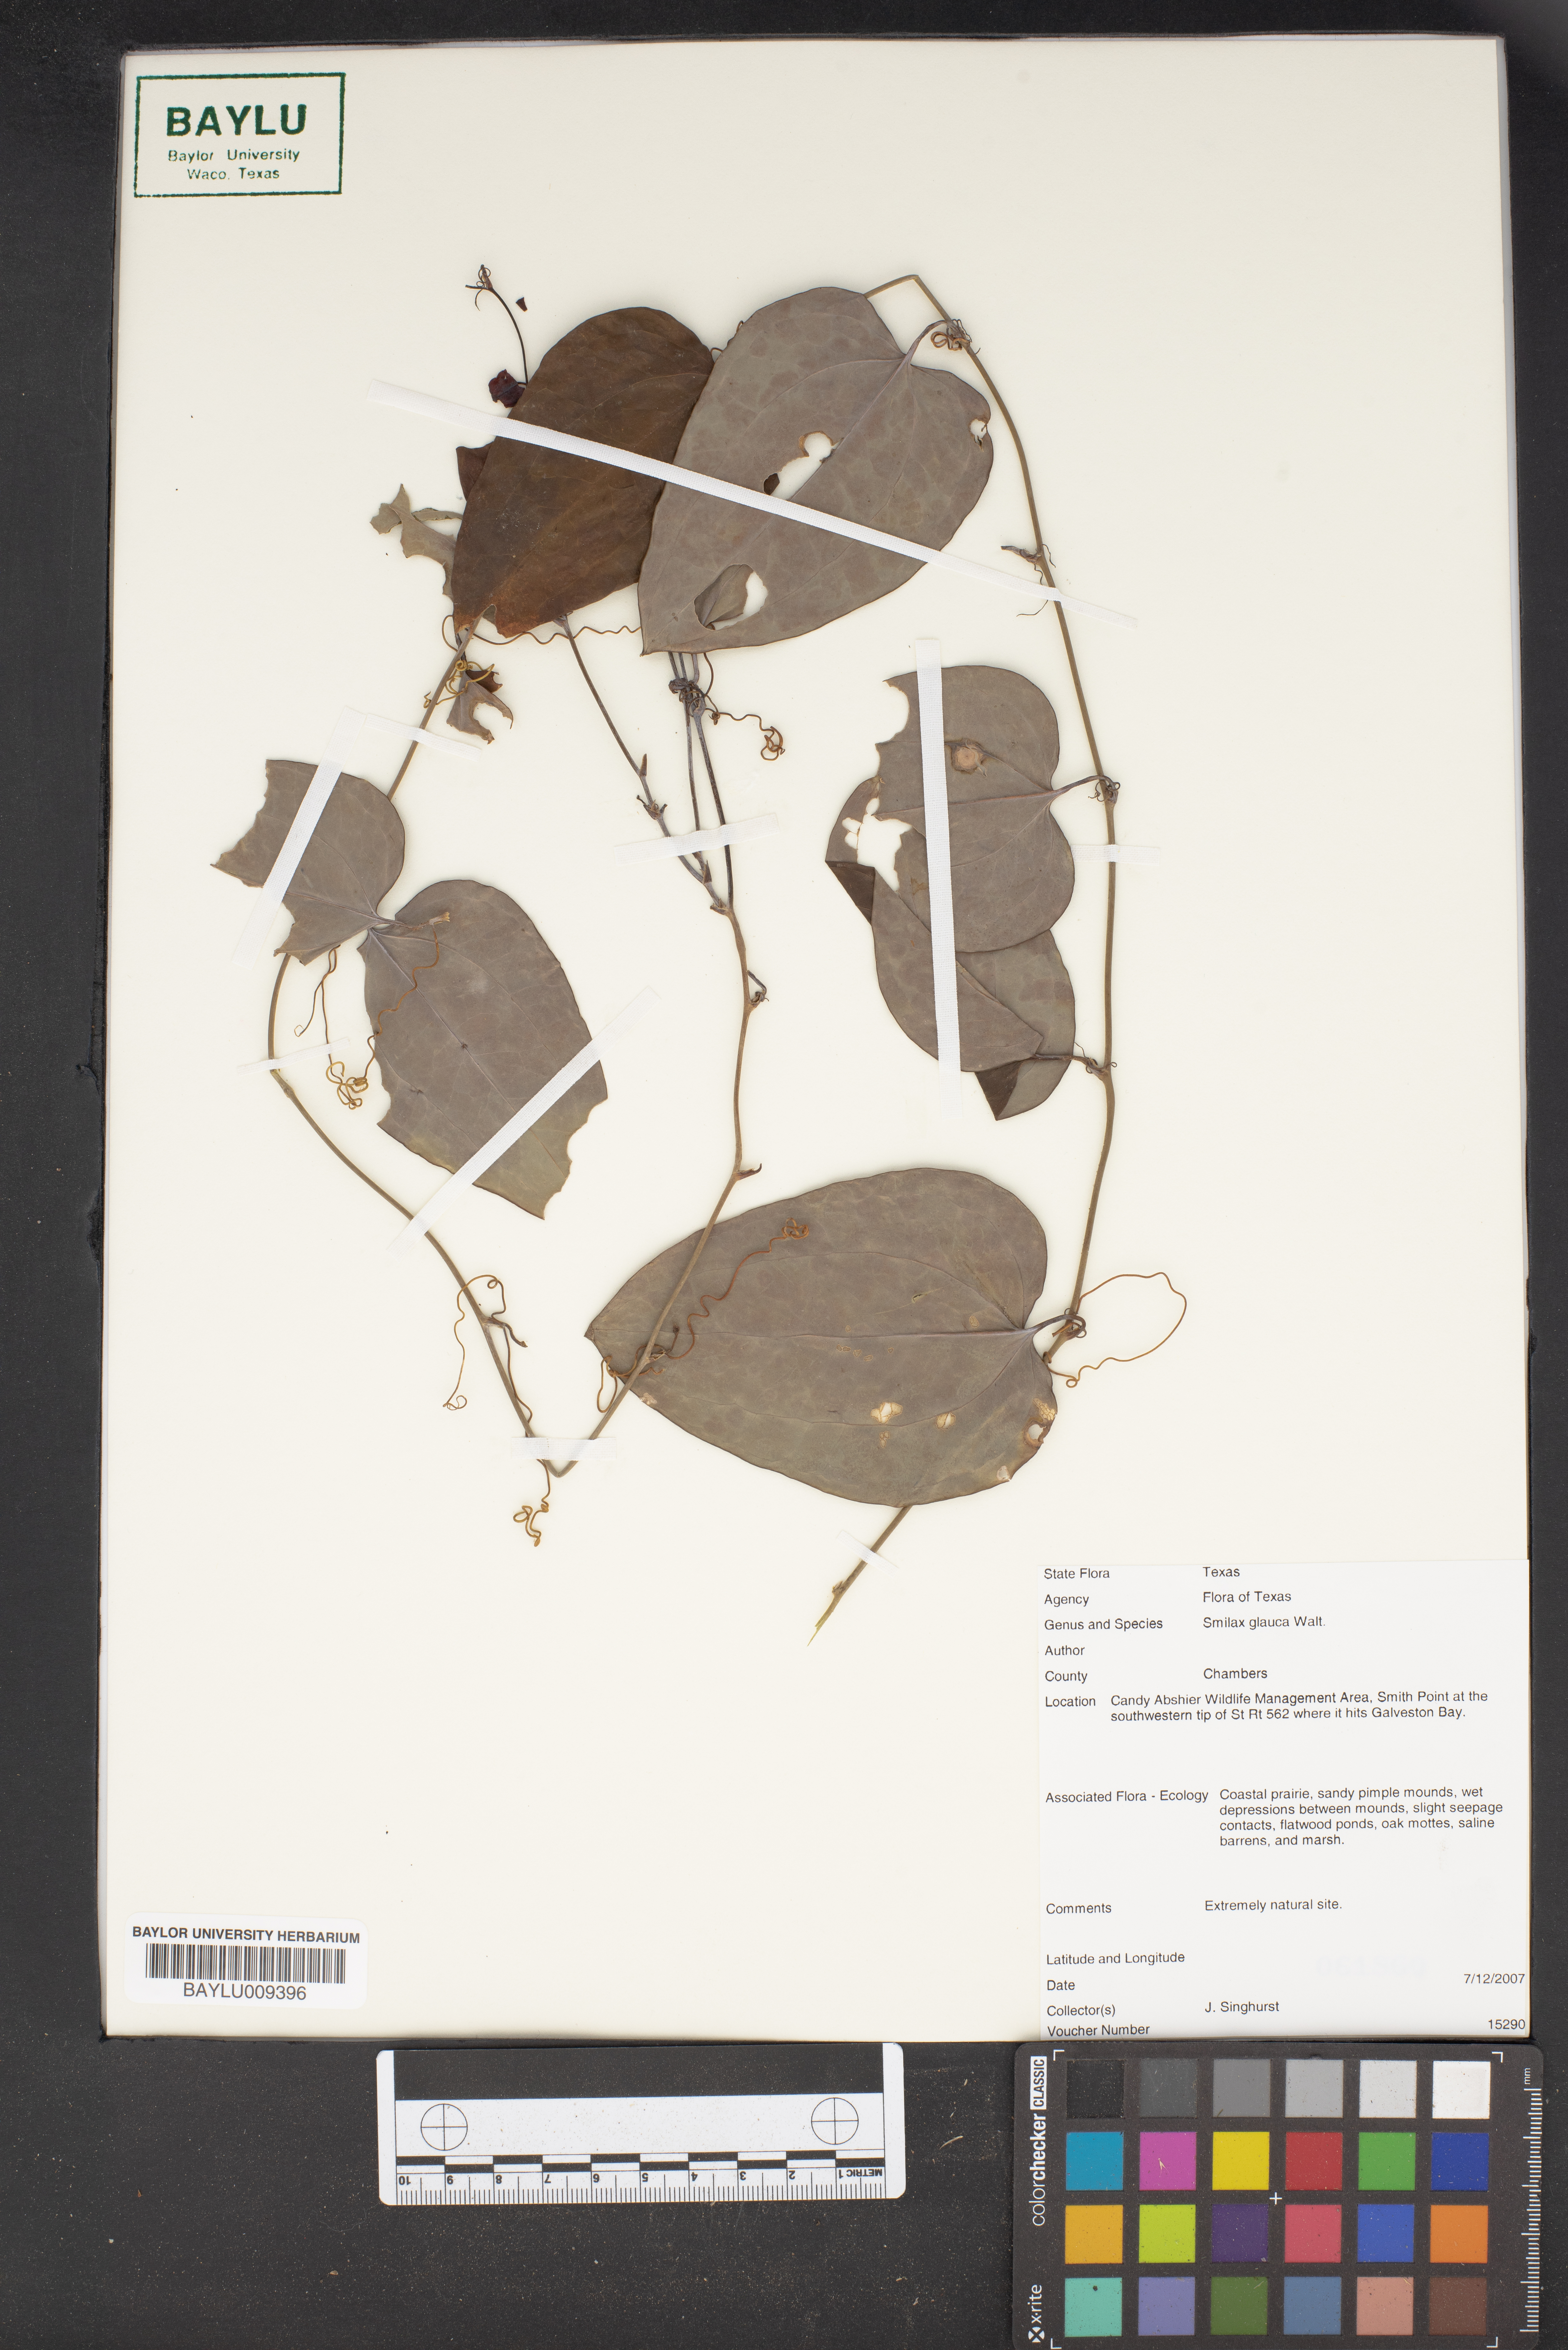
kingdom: Plantae
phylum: Tracheophyta
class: Liliopsida
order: Liliales
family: Smilacaceae
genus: Smilax
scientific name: Smilax glauca
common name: Cat greenbrier
